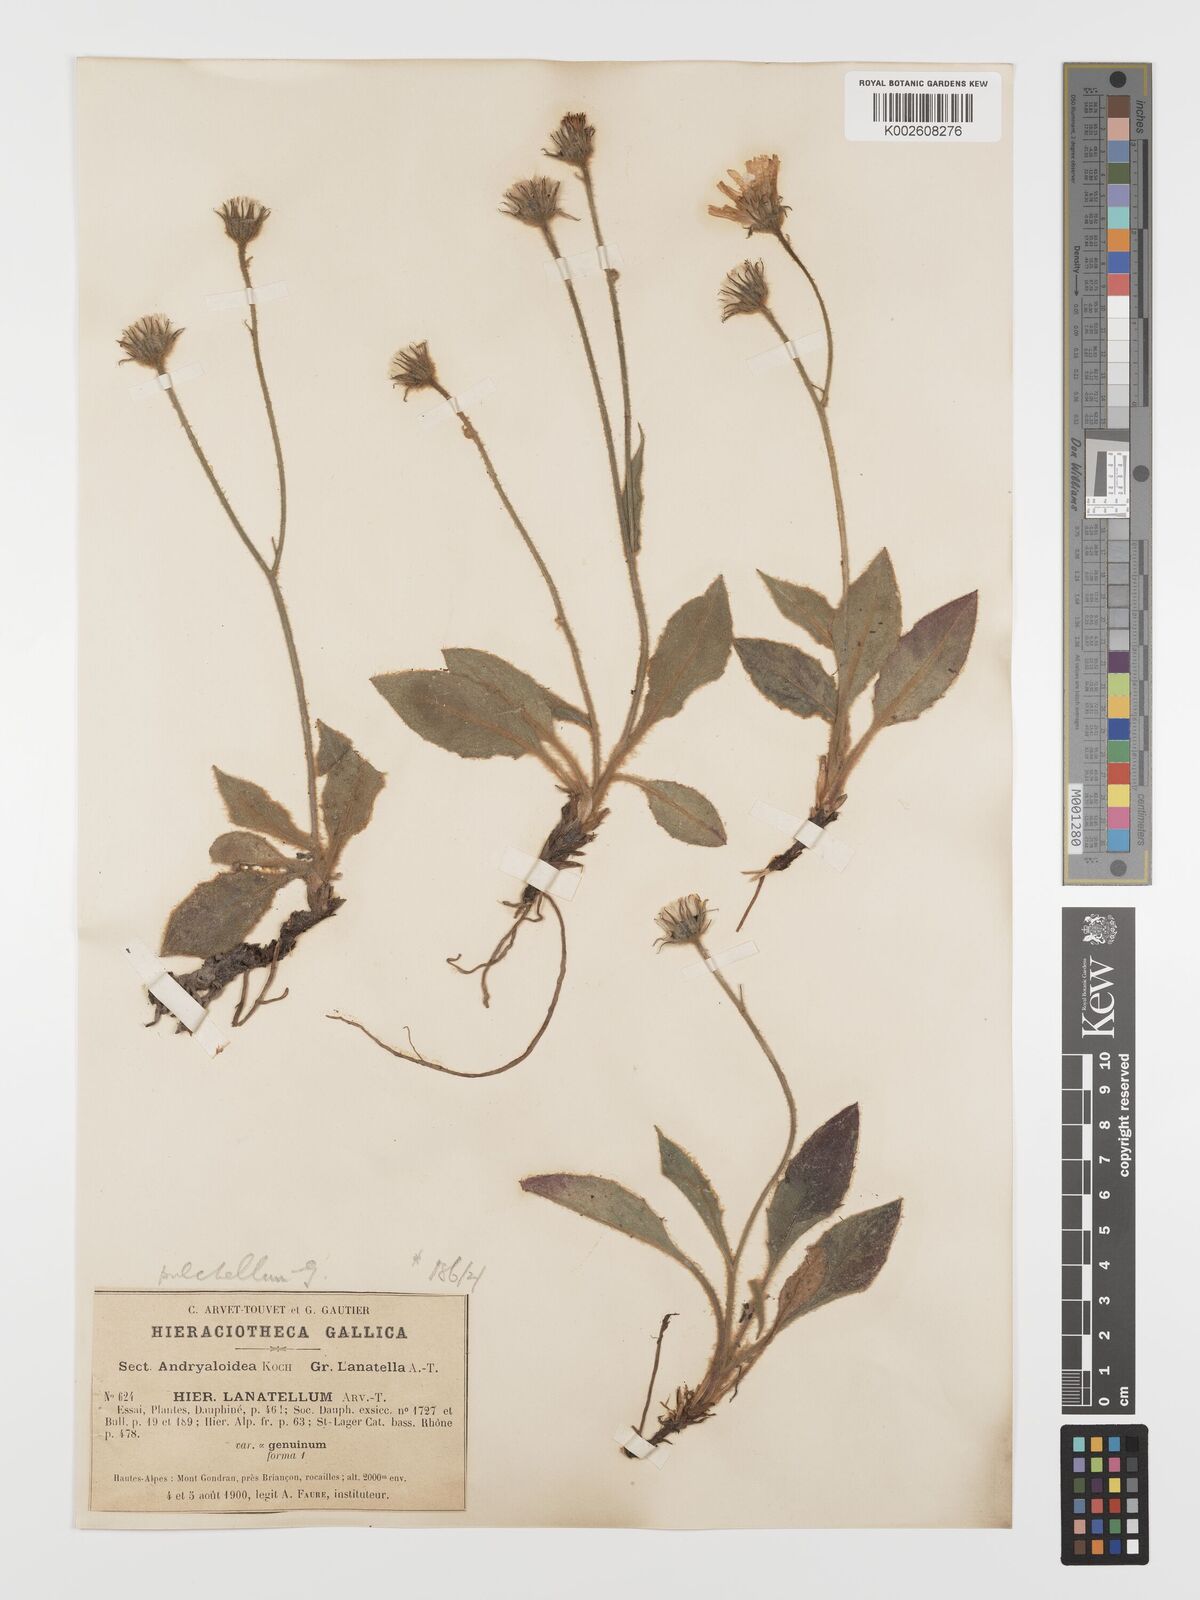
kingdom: Plantae
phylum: Tracheophyta
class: Magnoliopsida
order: Asterales
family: Asteraceae
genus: Hieracium
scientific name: Hieracium pulchellum
